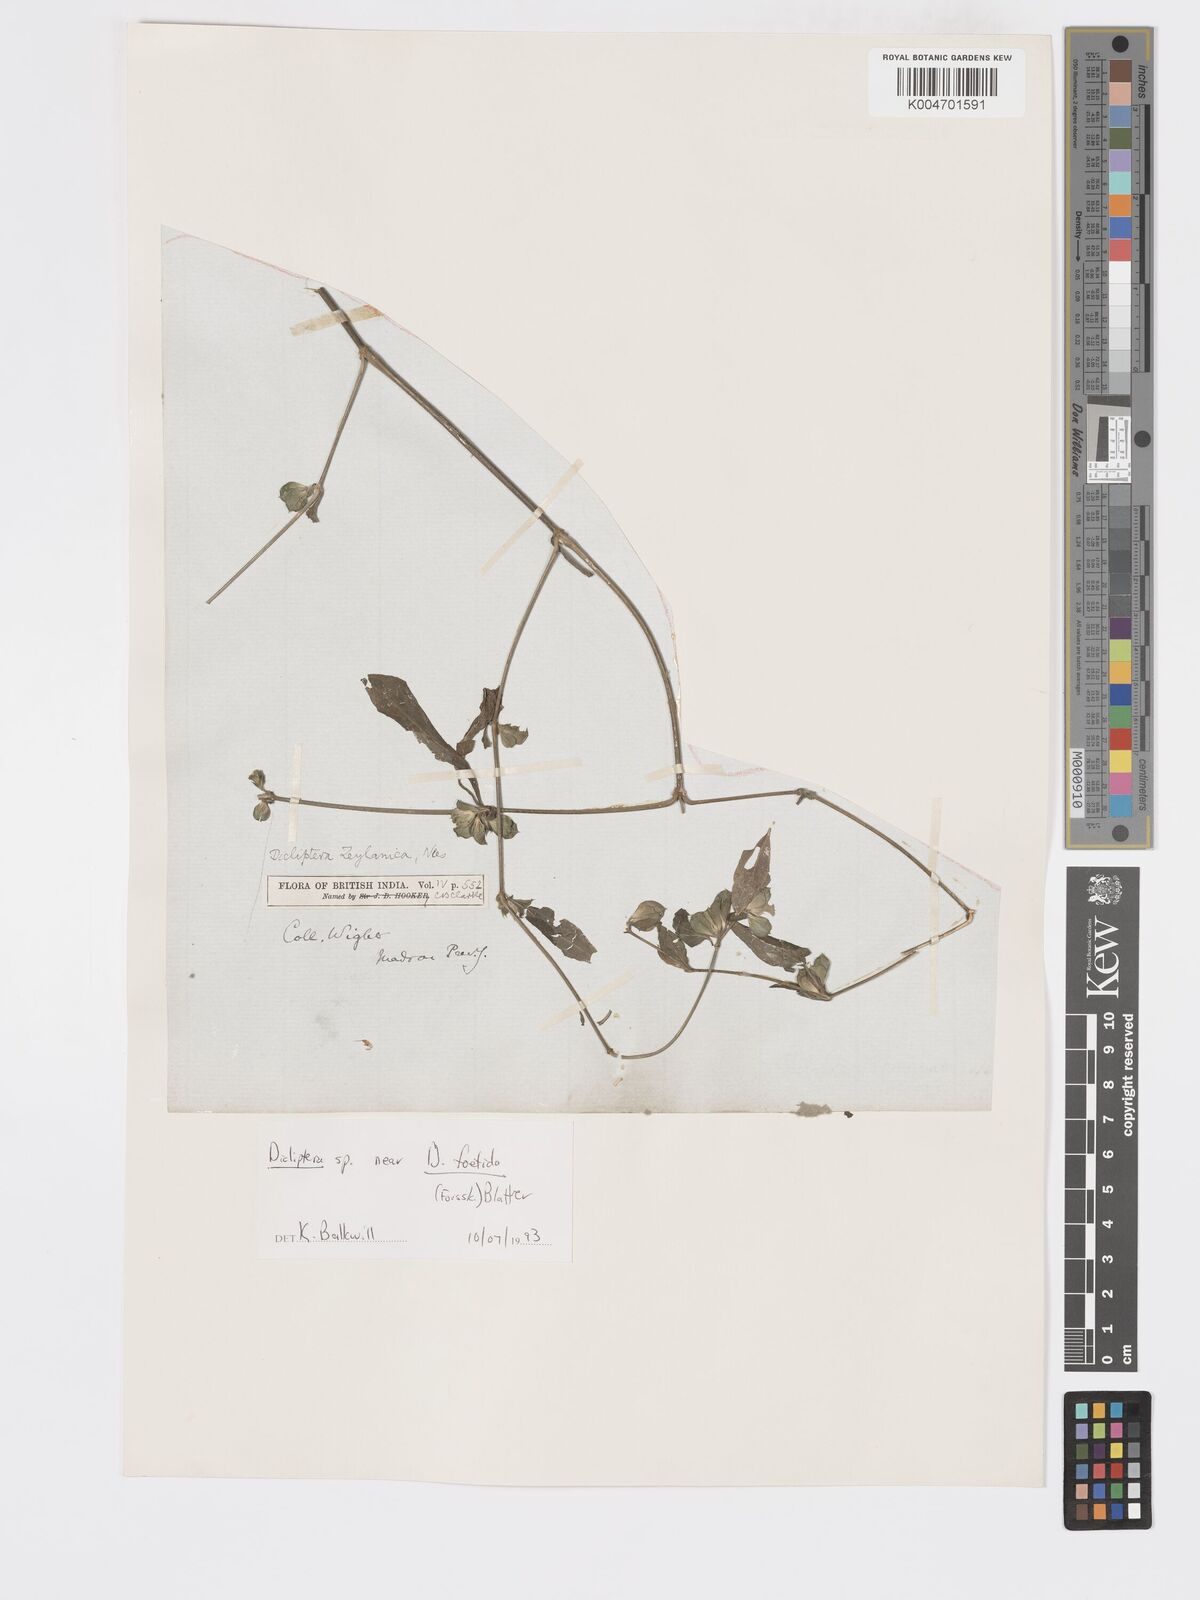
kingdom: Plantae
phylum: Tracheophyta
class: Magnoliopsida
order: Lamiales
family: Acanthaceae
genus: Dicliptera
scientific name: Dicliptera foetida
